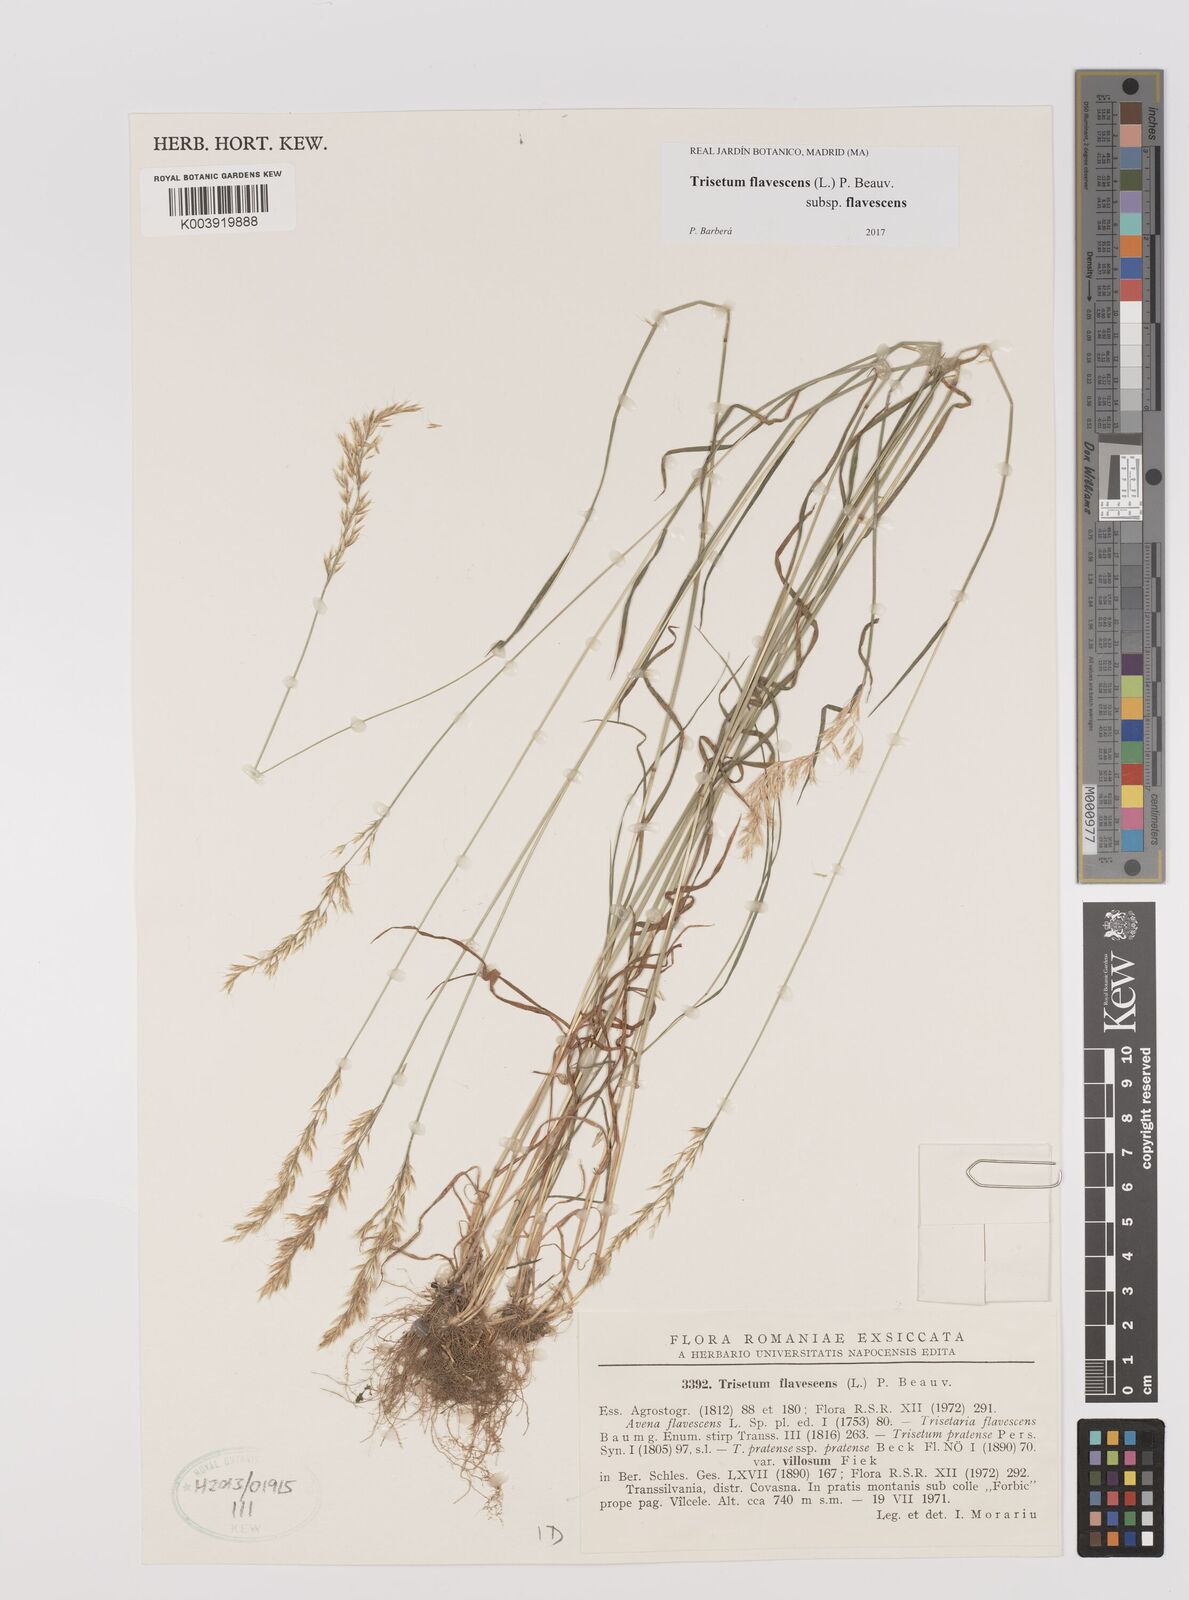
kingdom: Plantae
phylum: Tracheophyta
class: Liliopsida
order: Poales
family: Poaceae
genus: Trisetum
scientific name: Trisetum flavescens
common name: Yellow oat-grass
